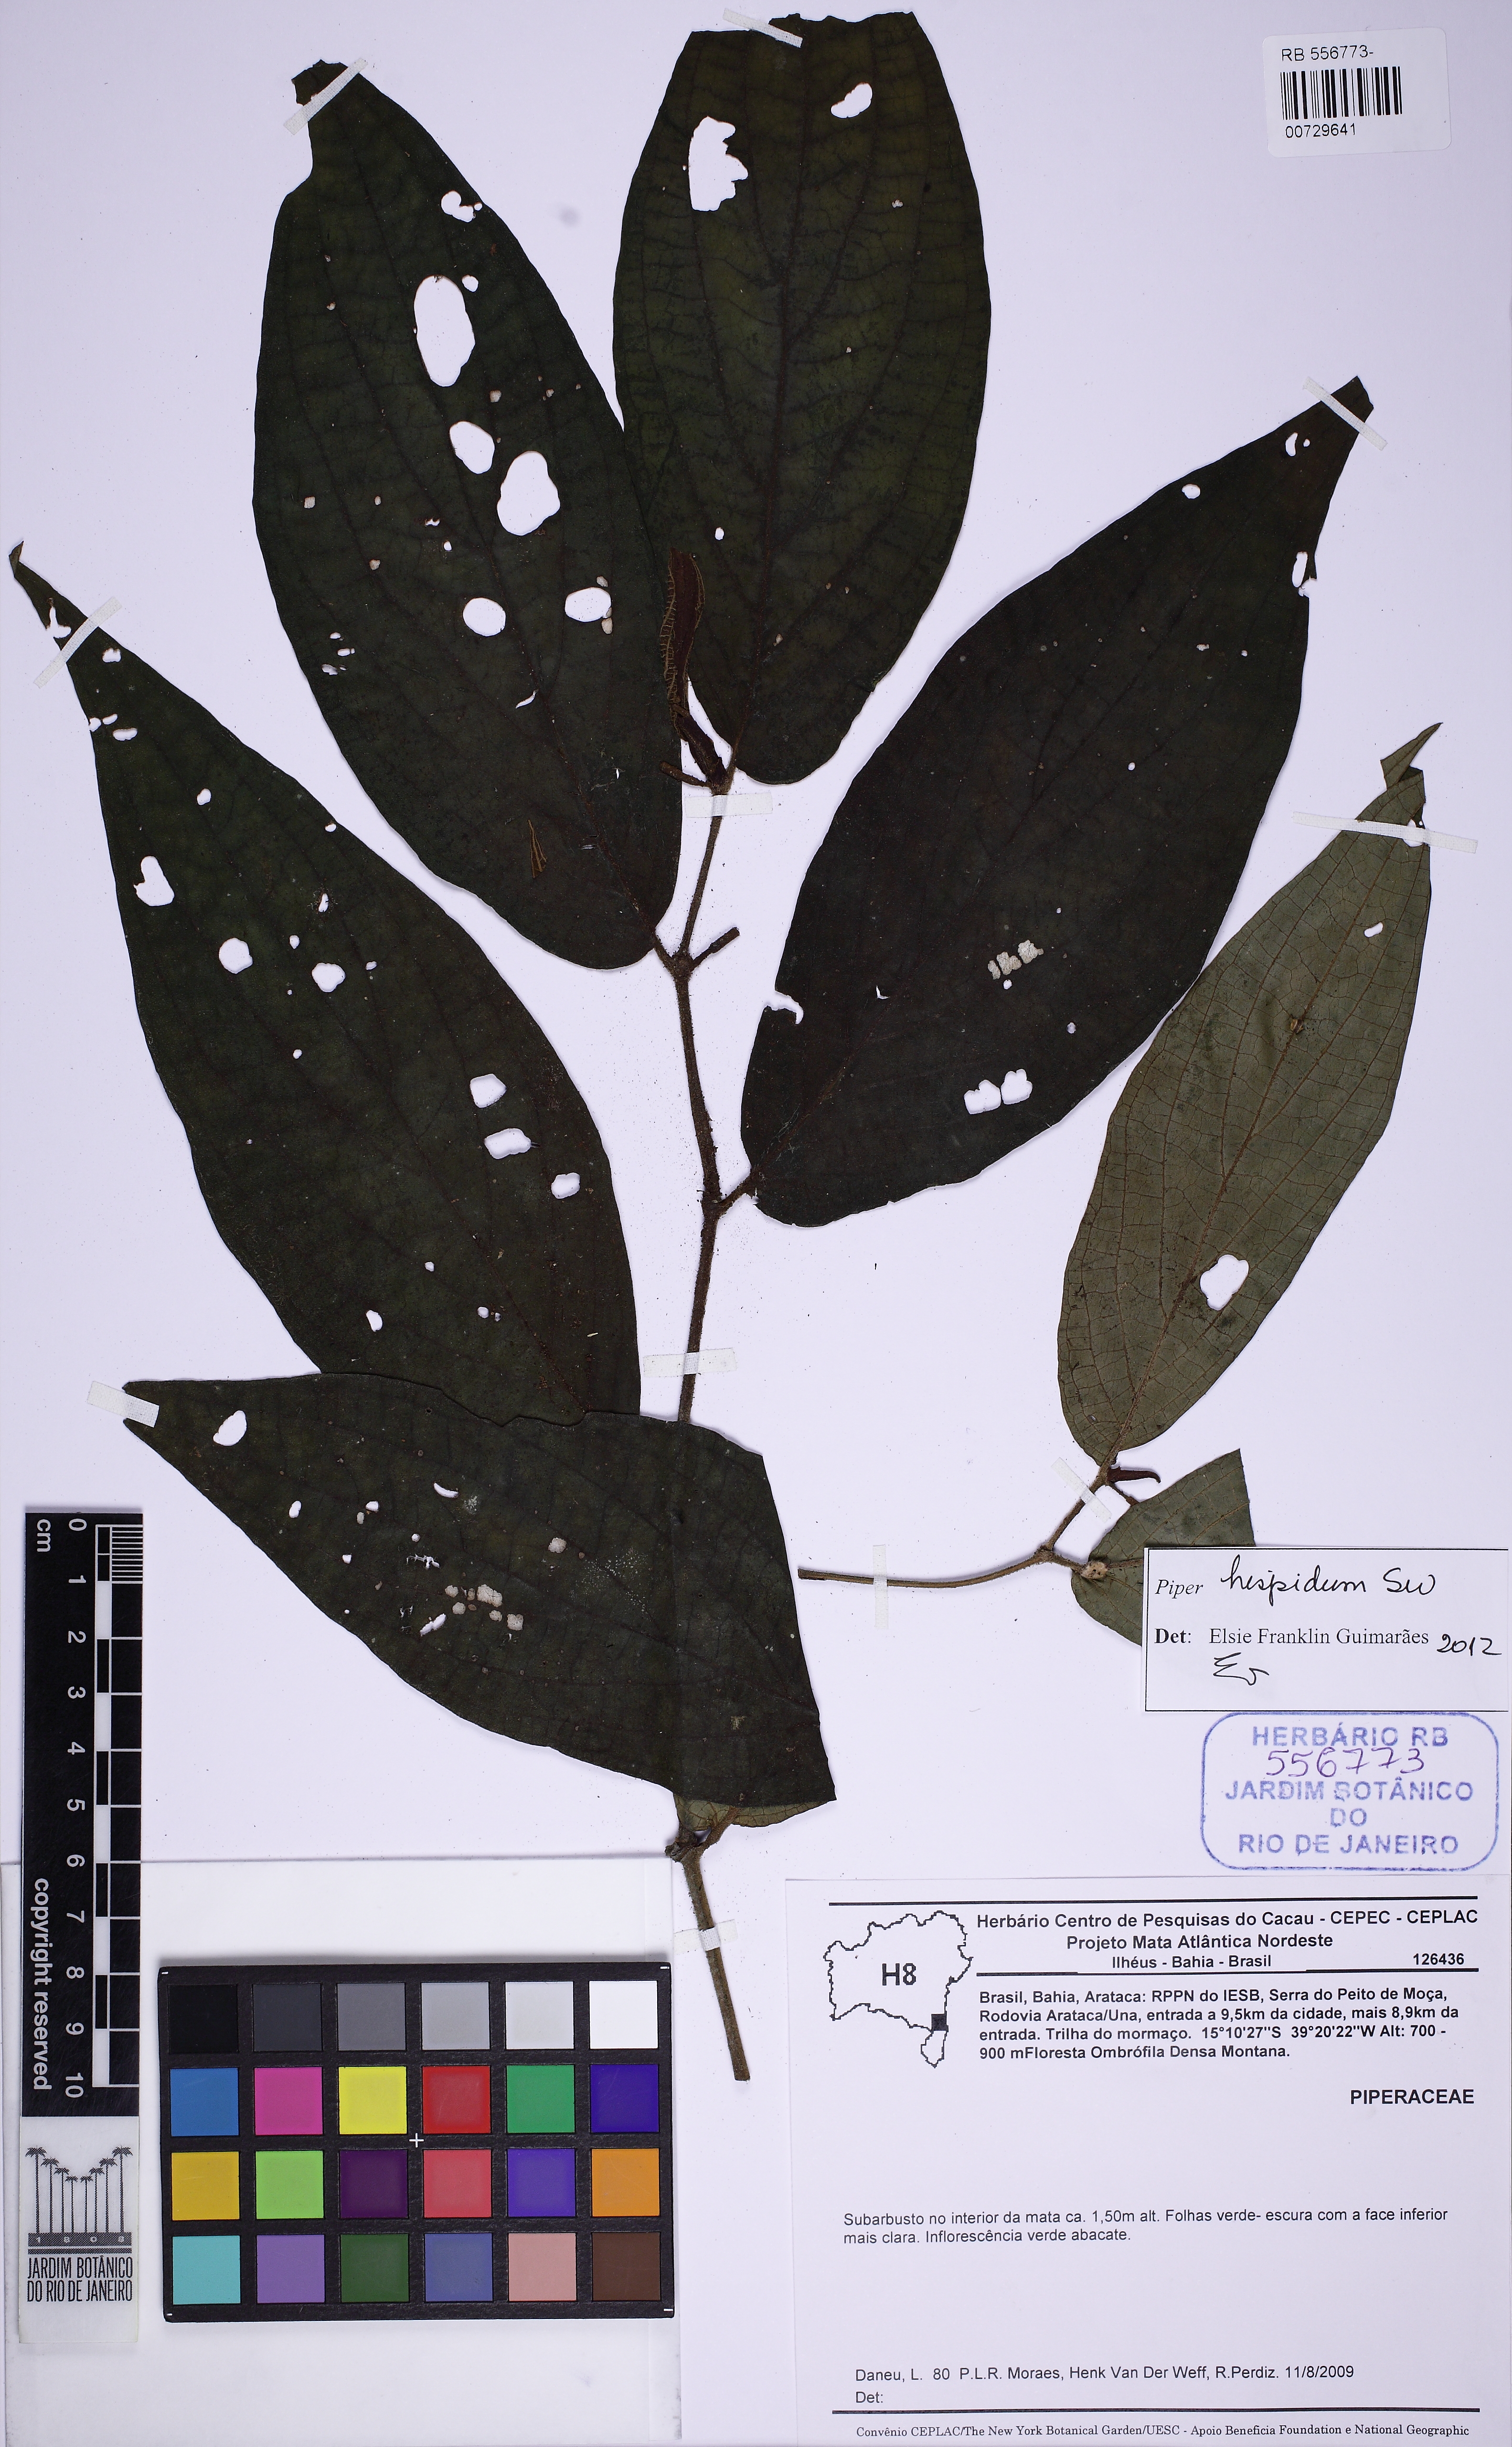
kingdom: Plantae
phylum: Tracheophyta
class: Magnoliopsida
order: Piperales
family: Piperaceae
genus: Piper
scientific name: Piper hispidum
